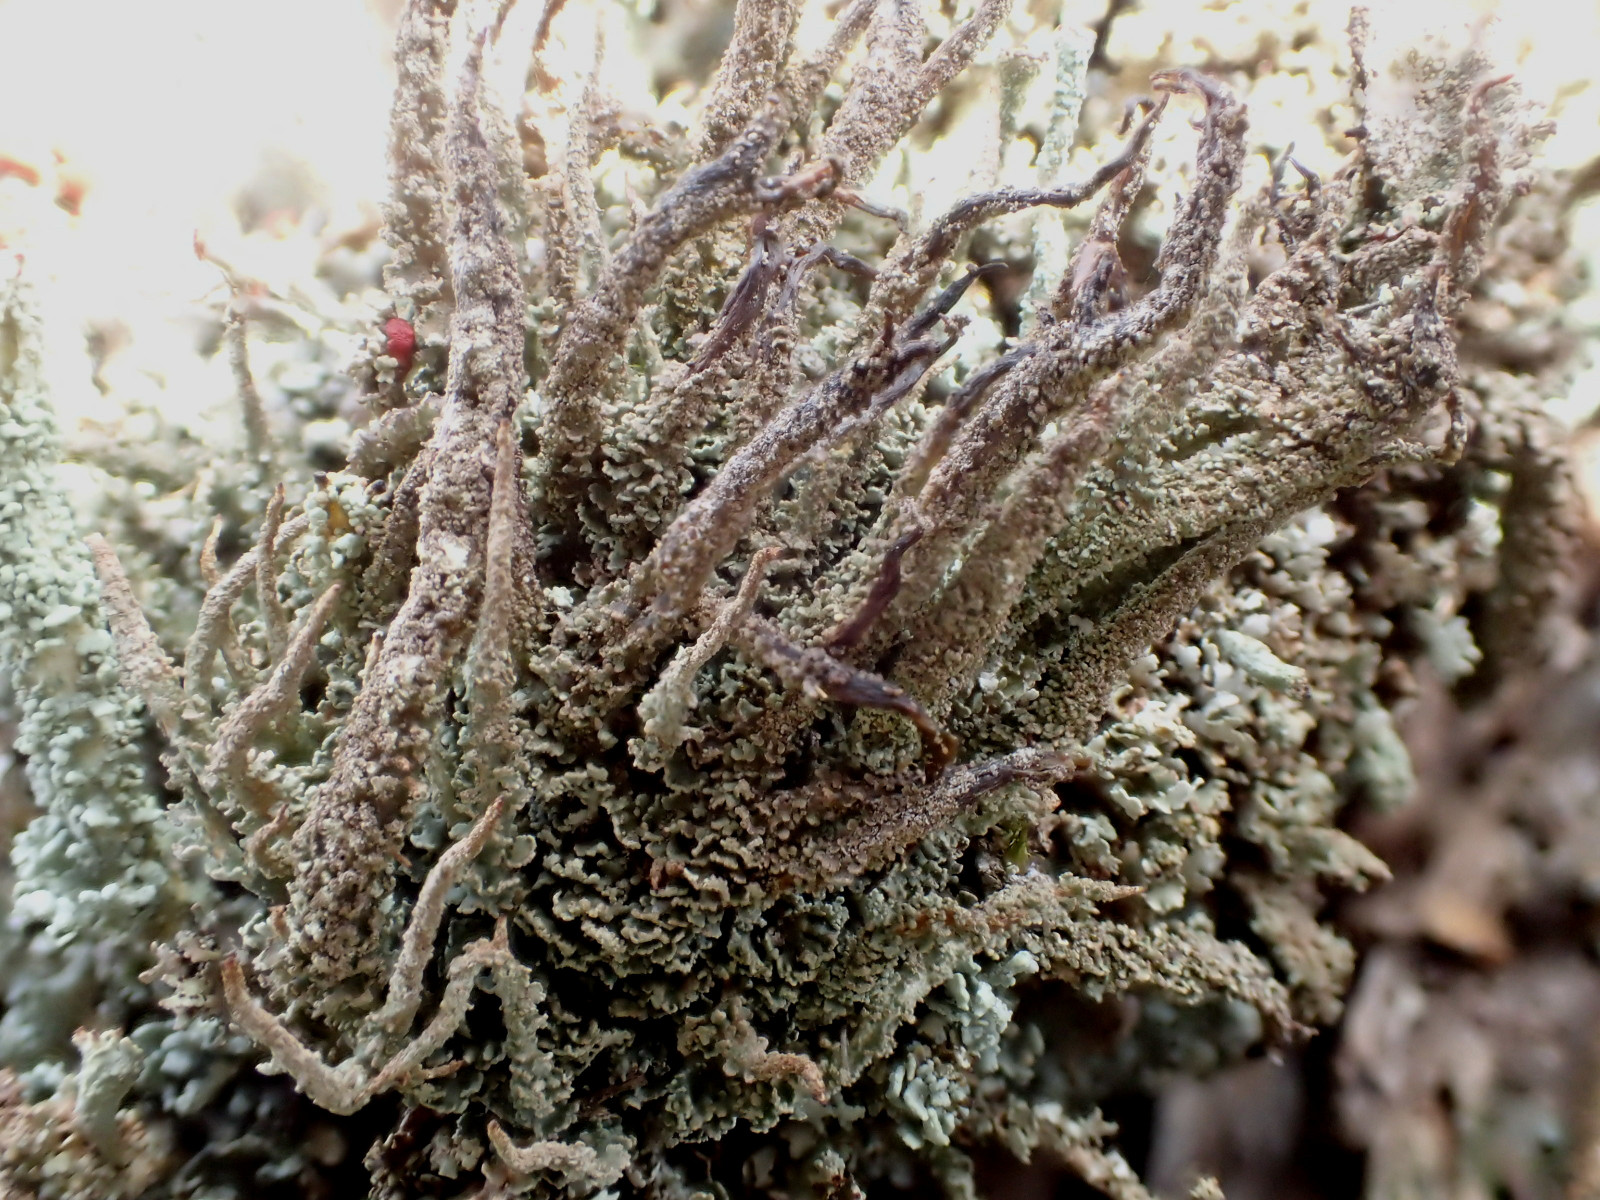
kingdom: Fungi
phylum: Ascomycota
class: Lecanoromycetes
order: Lecanorales
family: Cladoniaceae
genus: Cladonia
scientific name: Cladonia glauca
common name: grågrøn bægerlav
